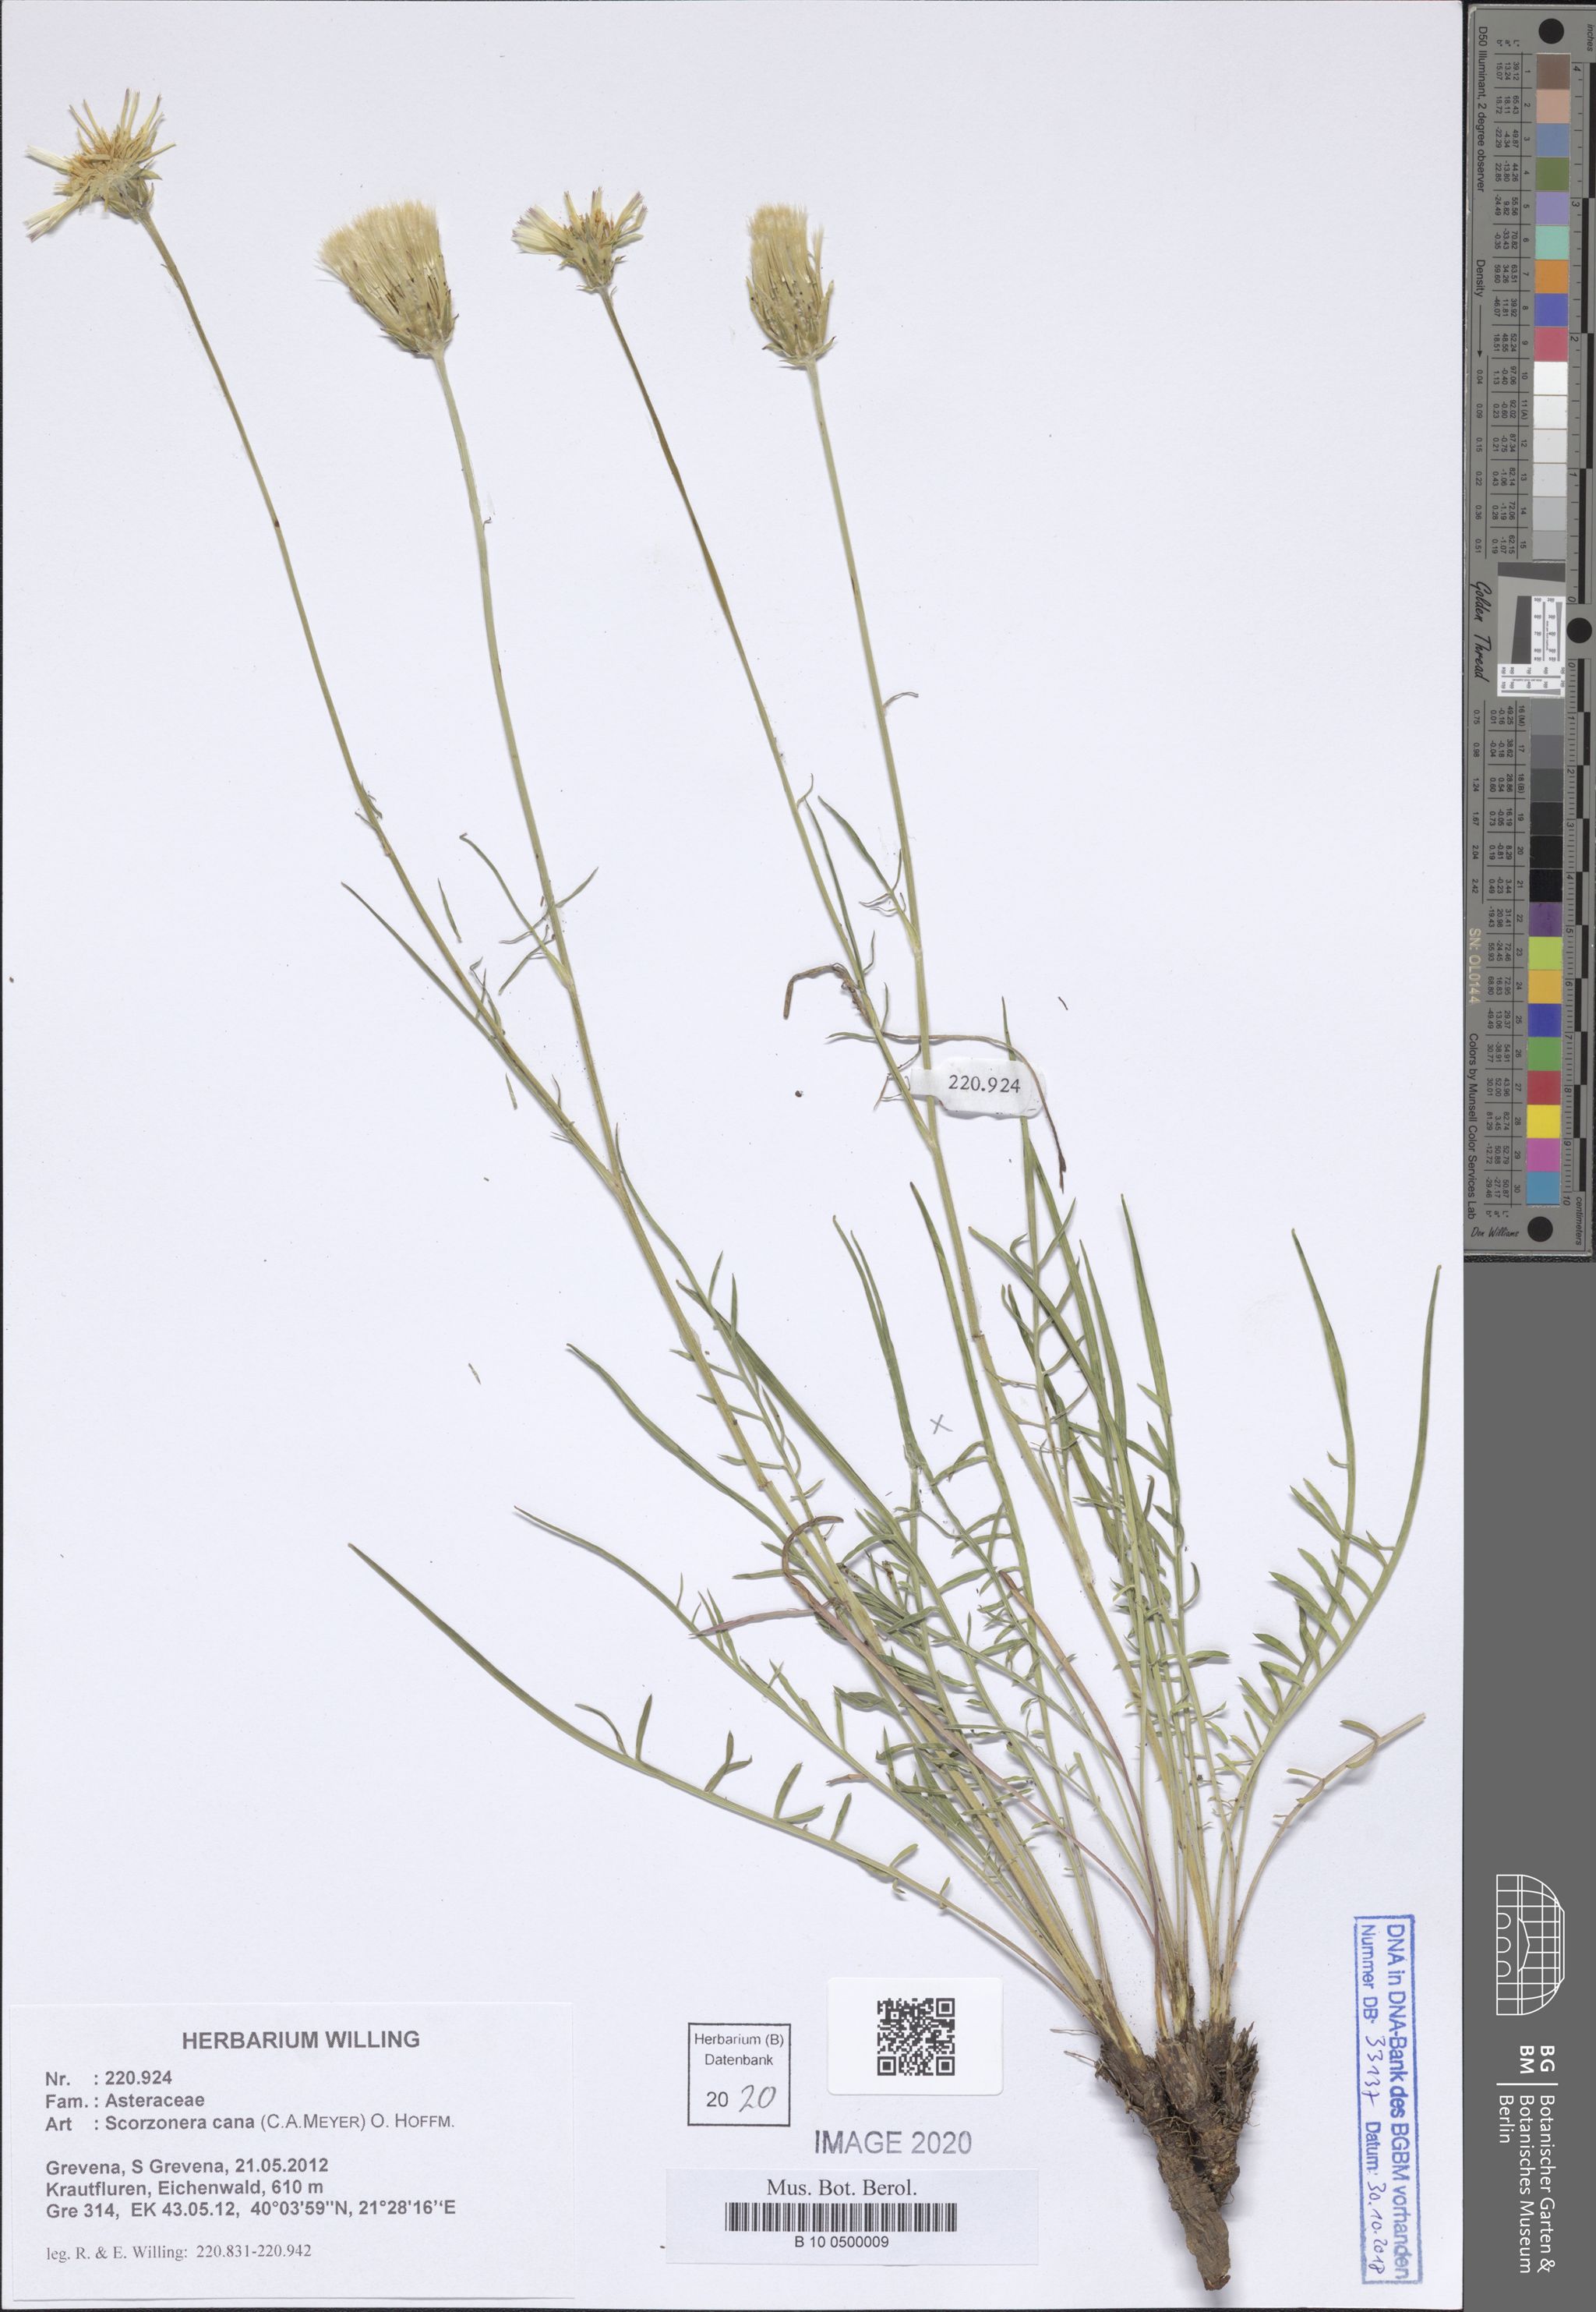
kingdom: Plantae
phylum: Tracheophyta
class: Magnoliopsida
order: Asterales
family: Asteraceae
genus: Scorzonera
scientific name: Scorzonera cana
